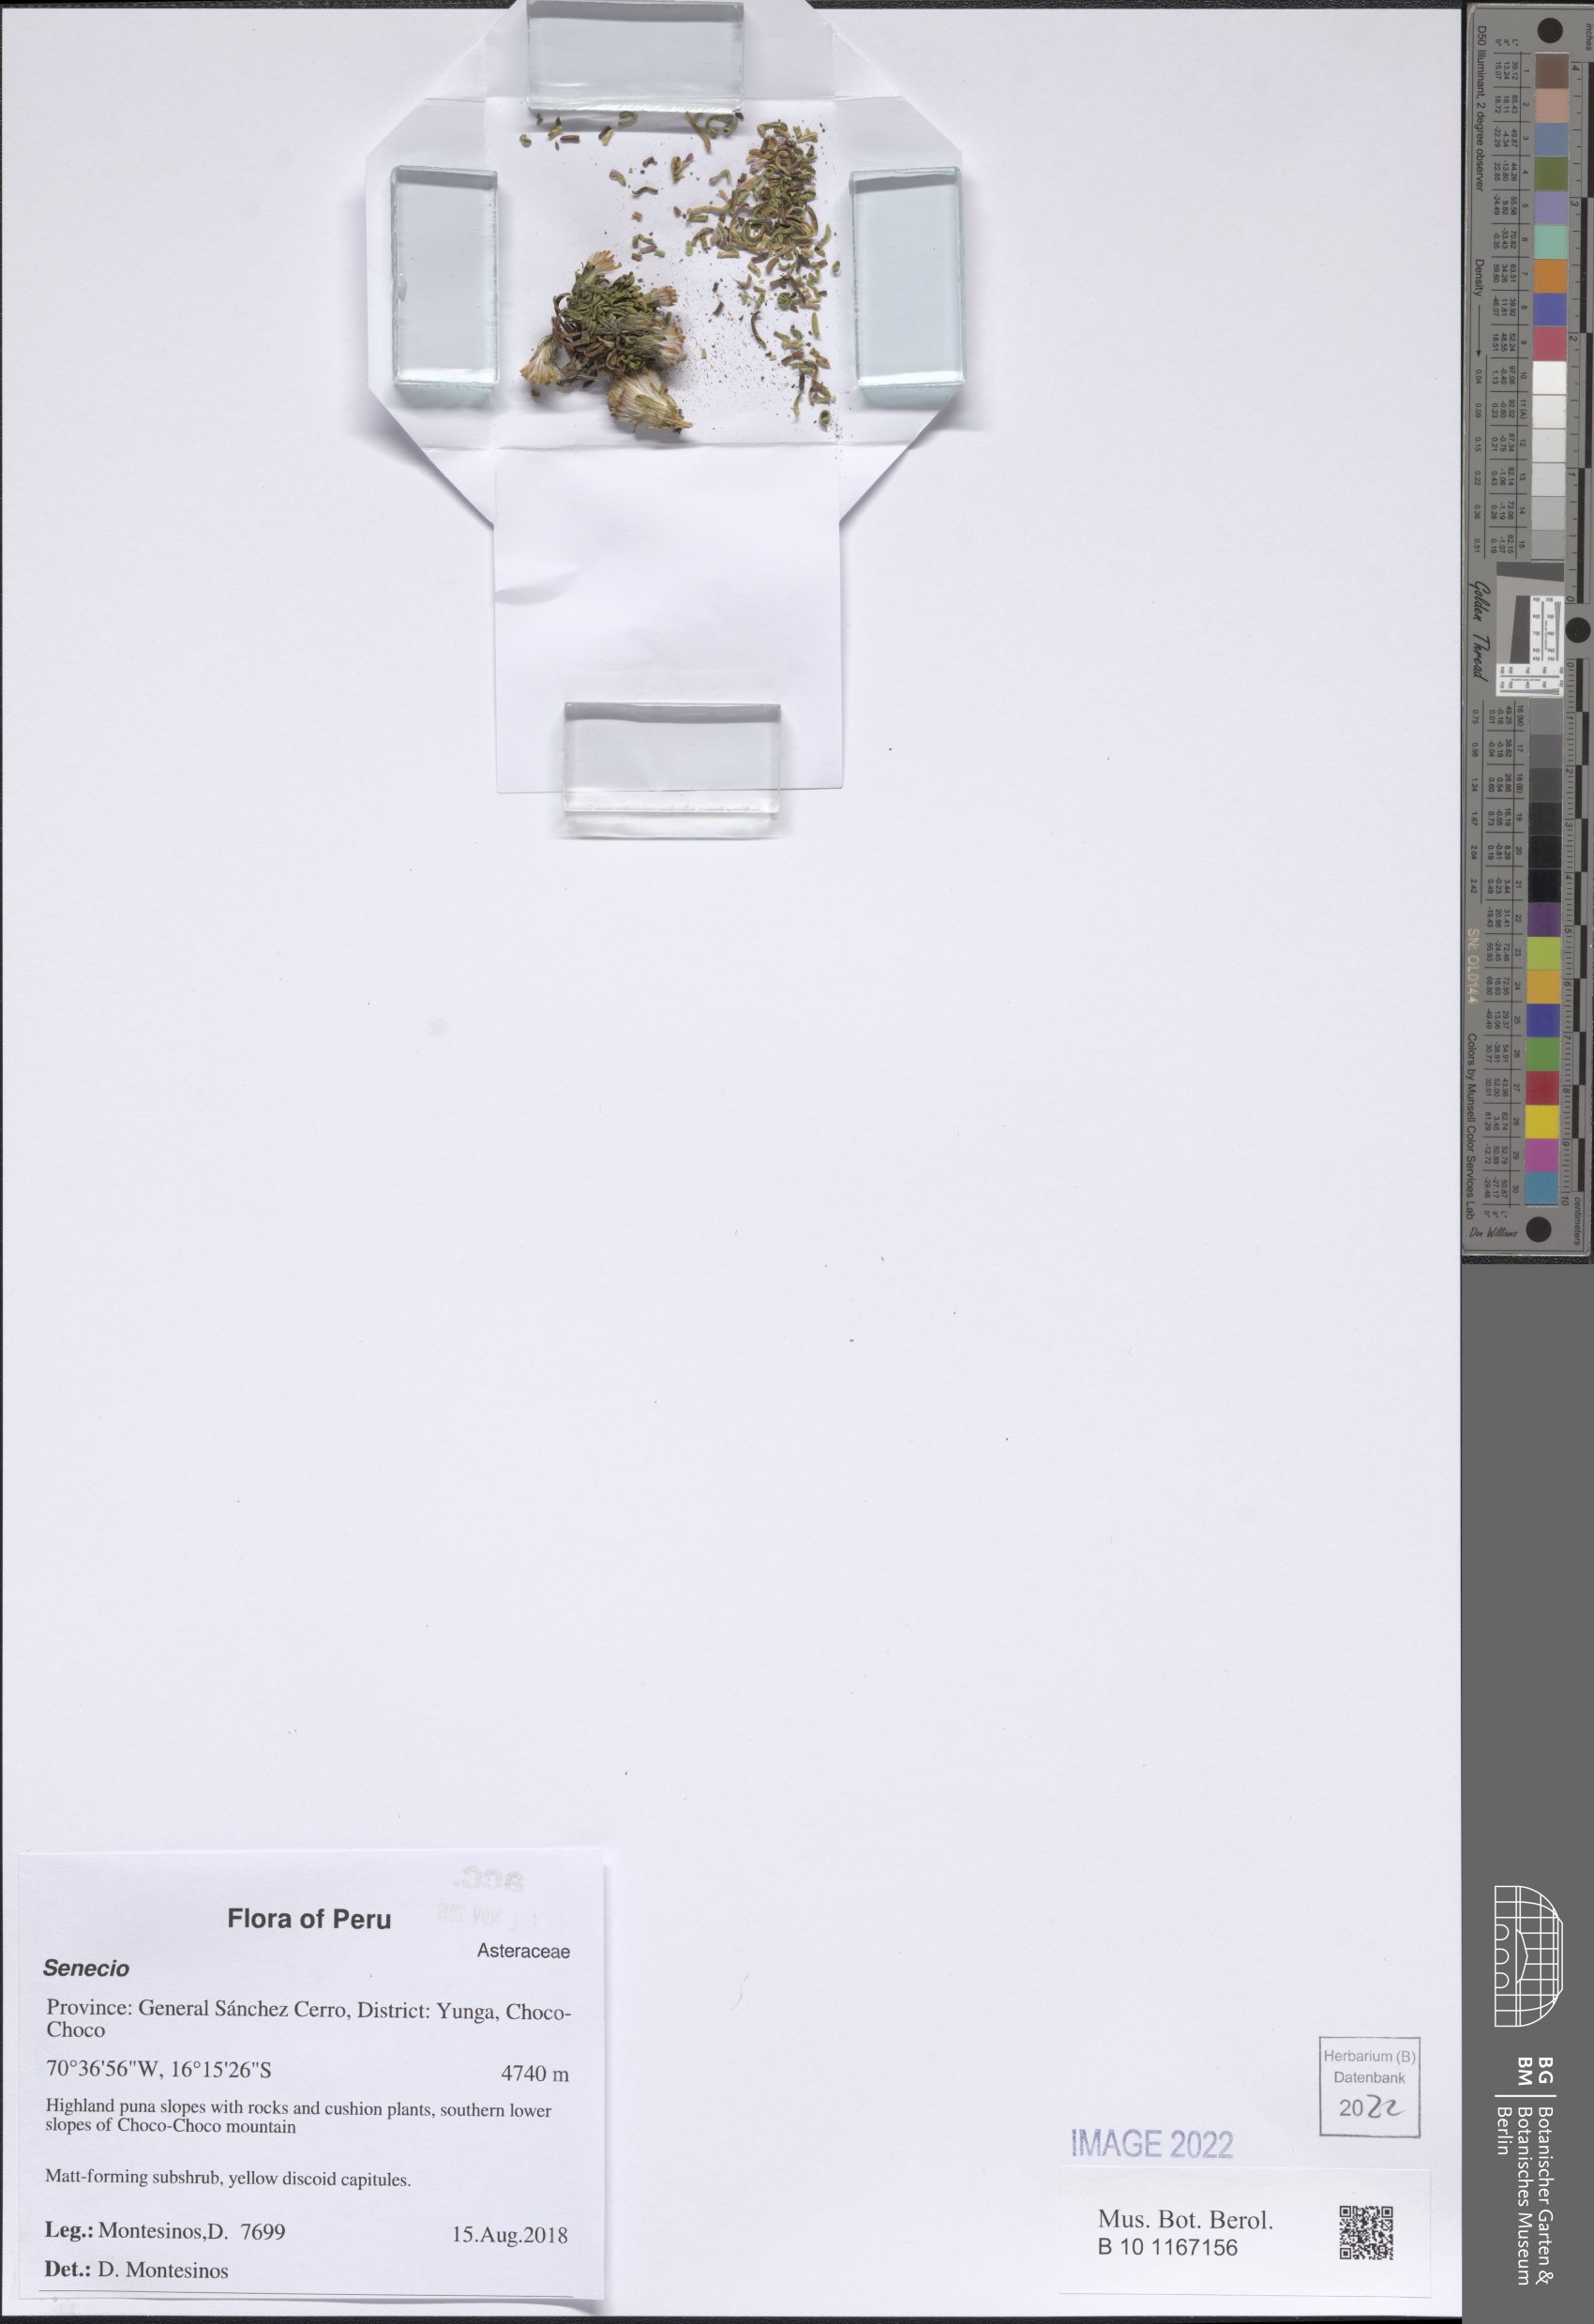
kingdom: Plantae
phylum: Tracheophyta
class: Magnoliopsida
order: Asterales
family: Asteraceae
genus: Senecio
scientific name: Senecio
